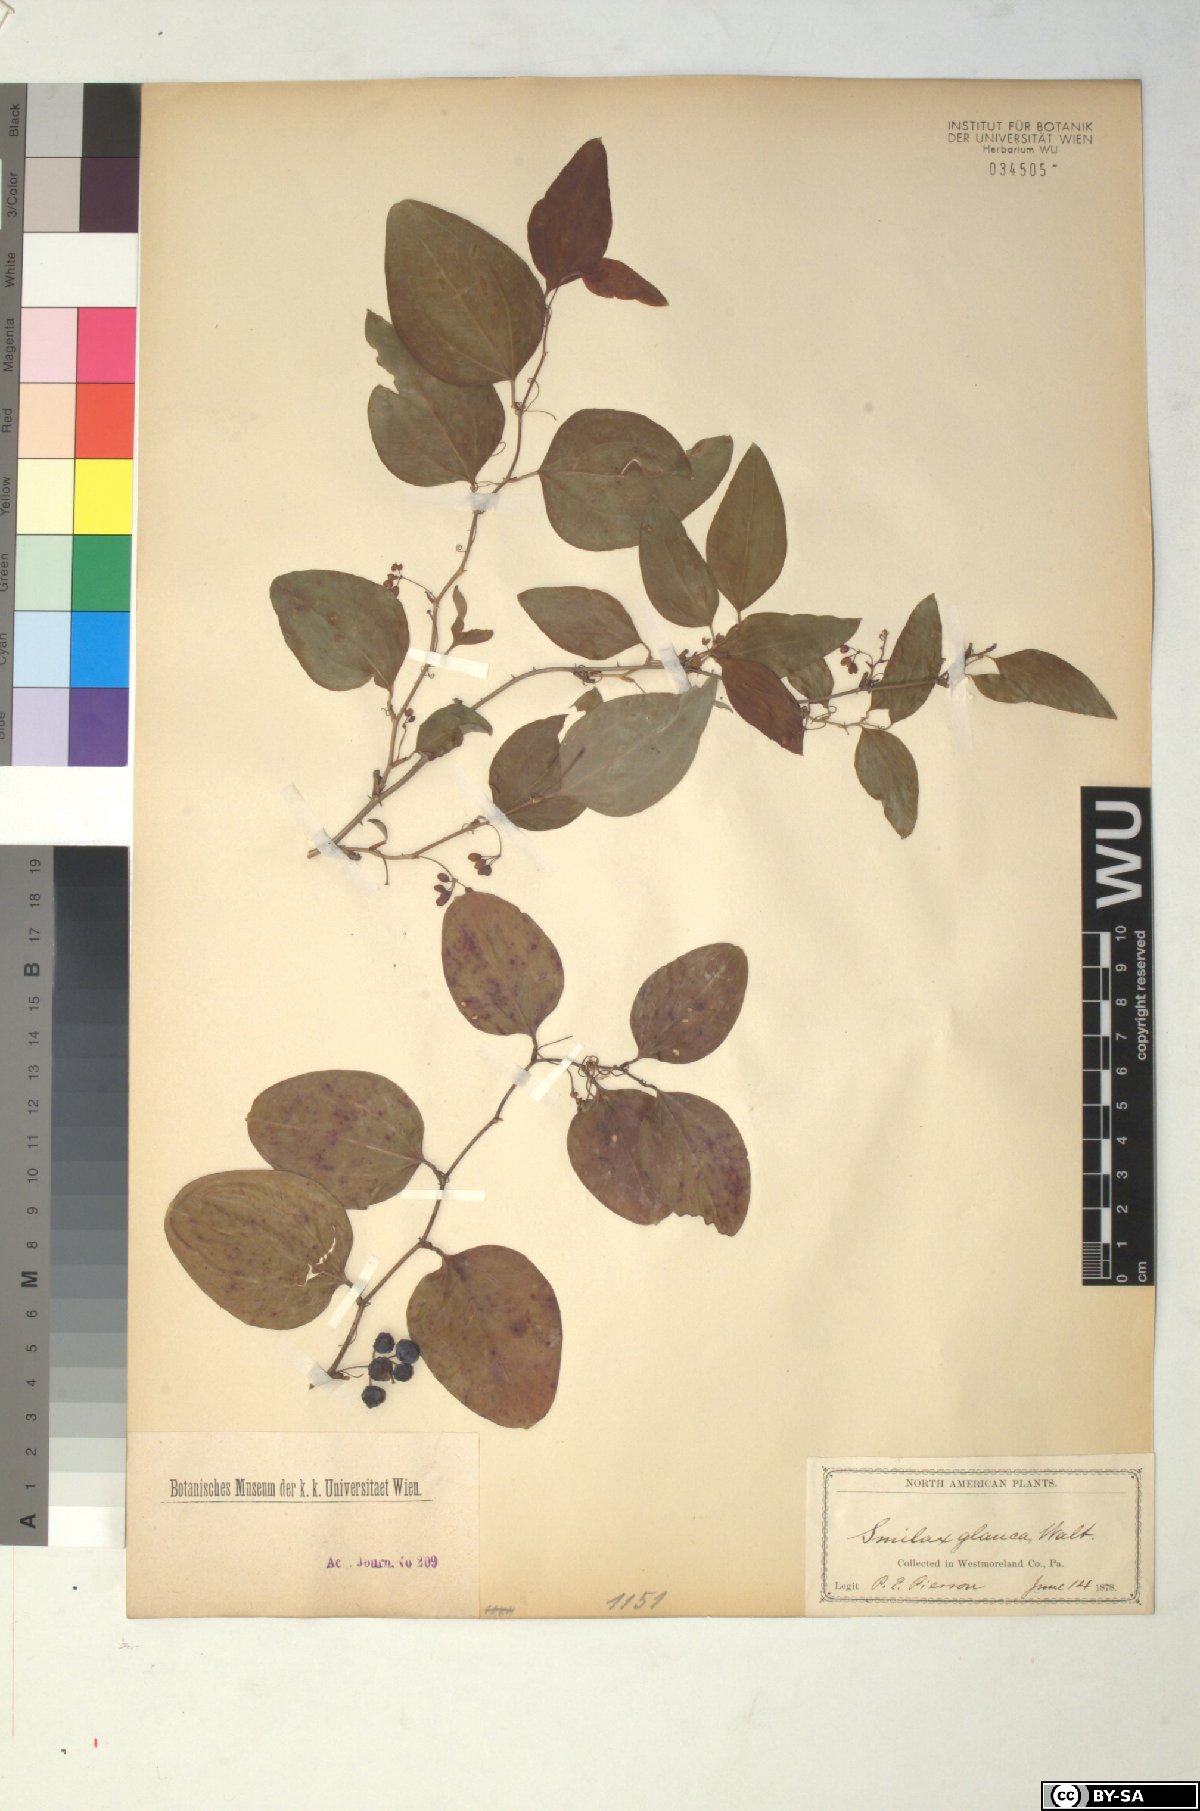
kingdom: Plantae
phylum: Tracheophyta
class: Liliopsida
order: Liliales
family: Smilacaceae
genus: Smilax
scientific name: Smilax glauca
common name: Cat greenbrier
